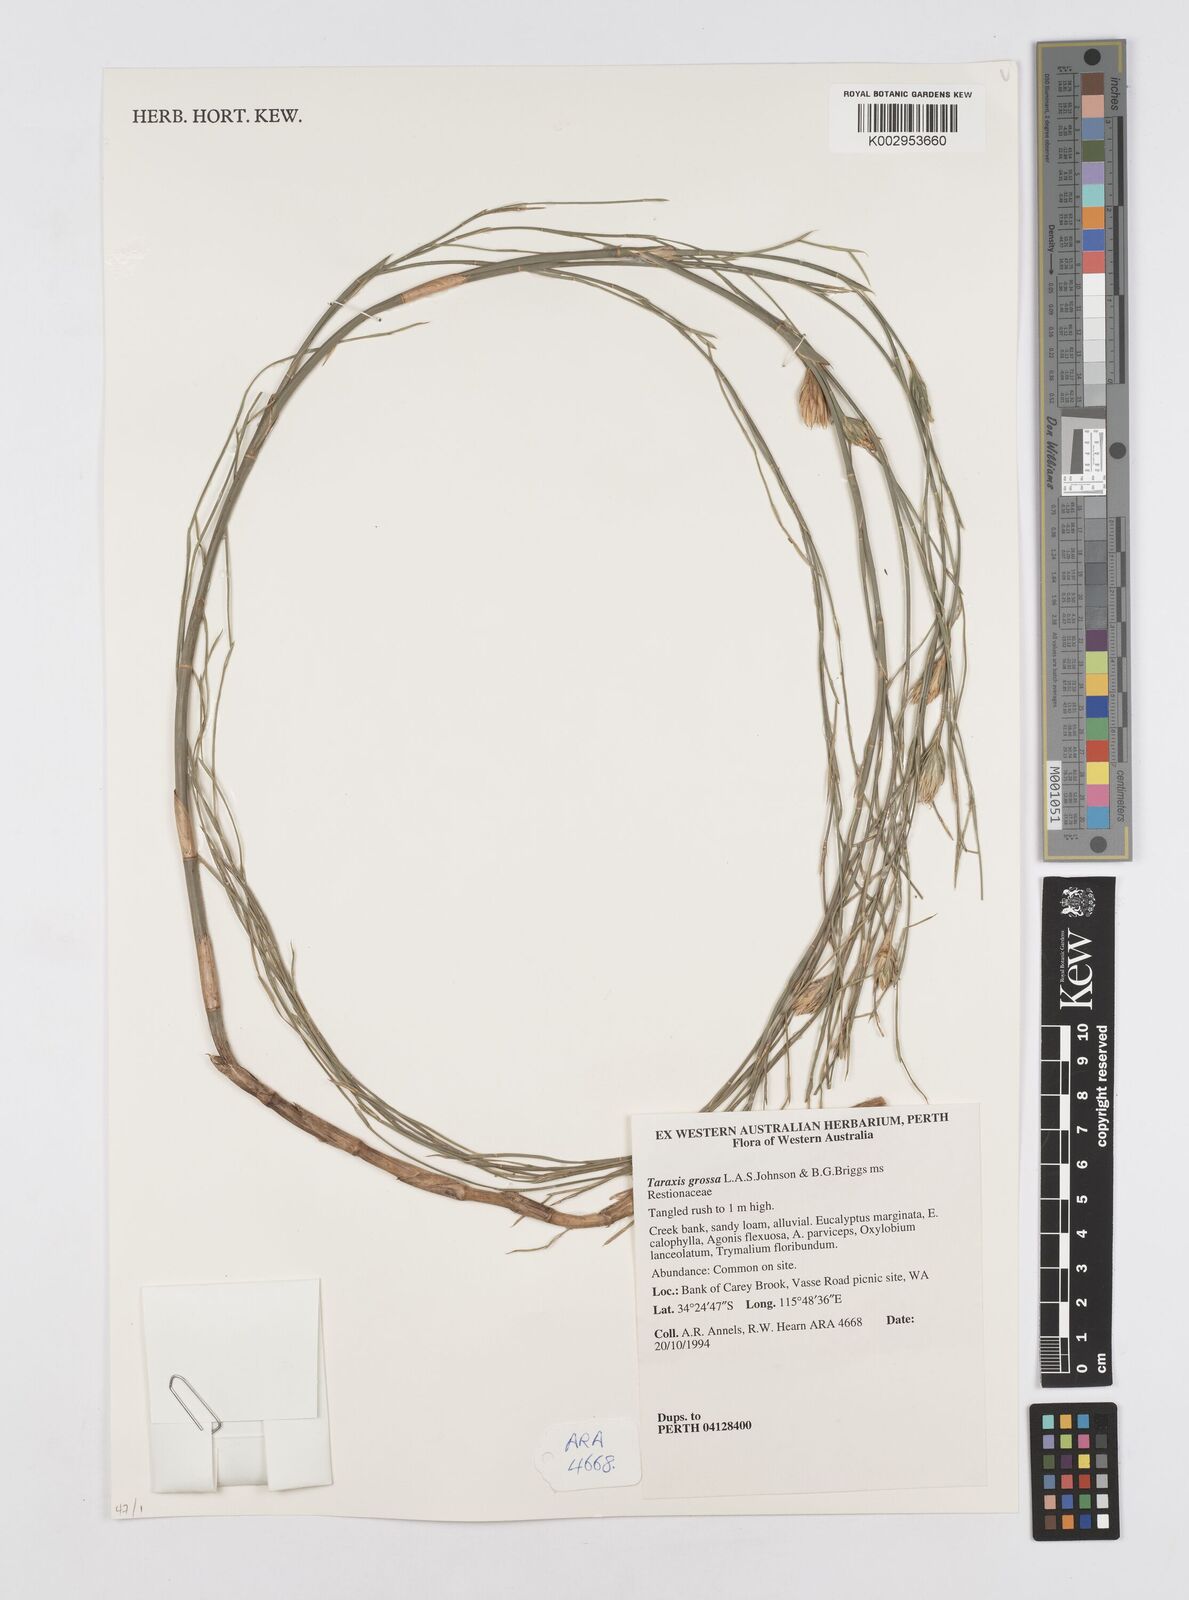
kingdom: Plantae
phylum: Tracheophyta
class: Liliopsida
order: Poales
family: Restionaceae
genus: Taraxis
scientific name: Taraxis grossa
